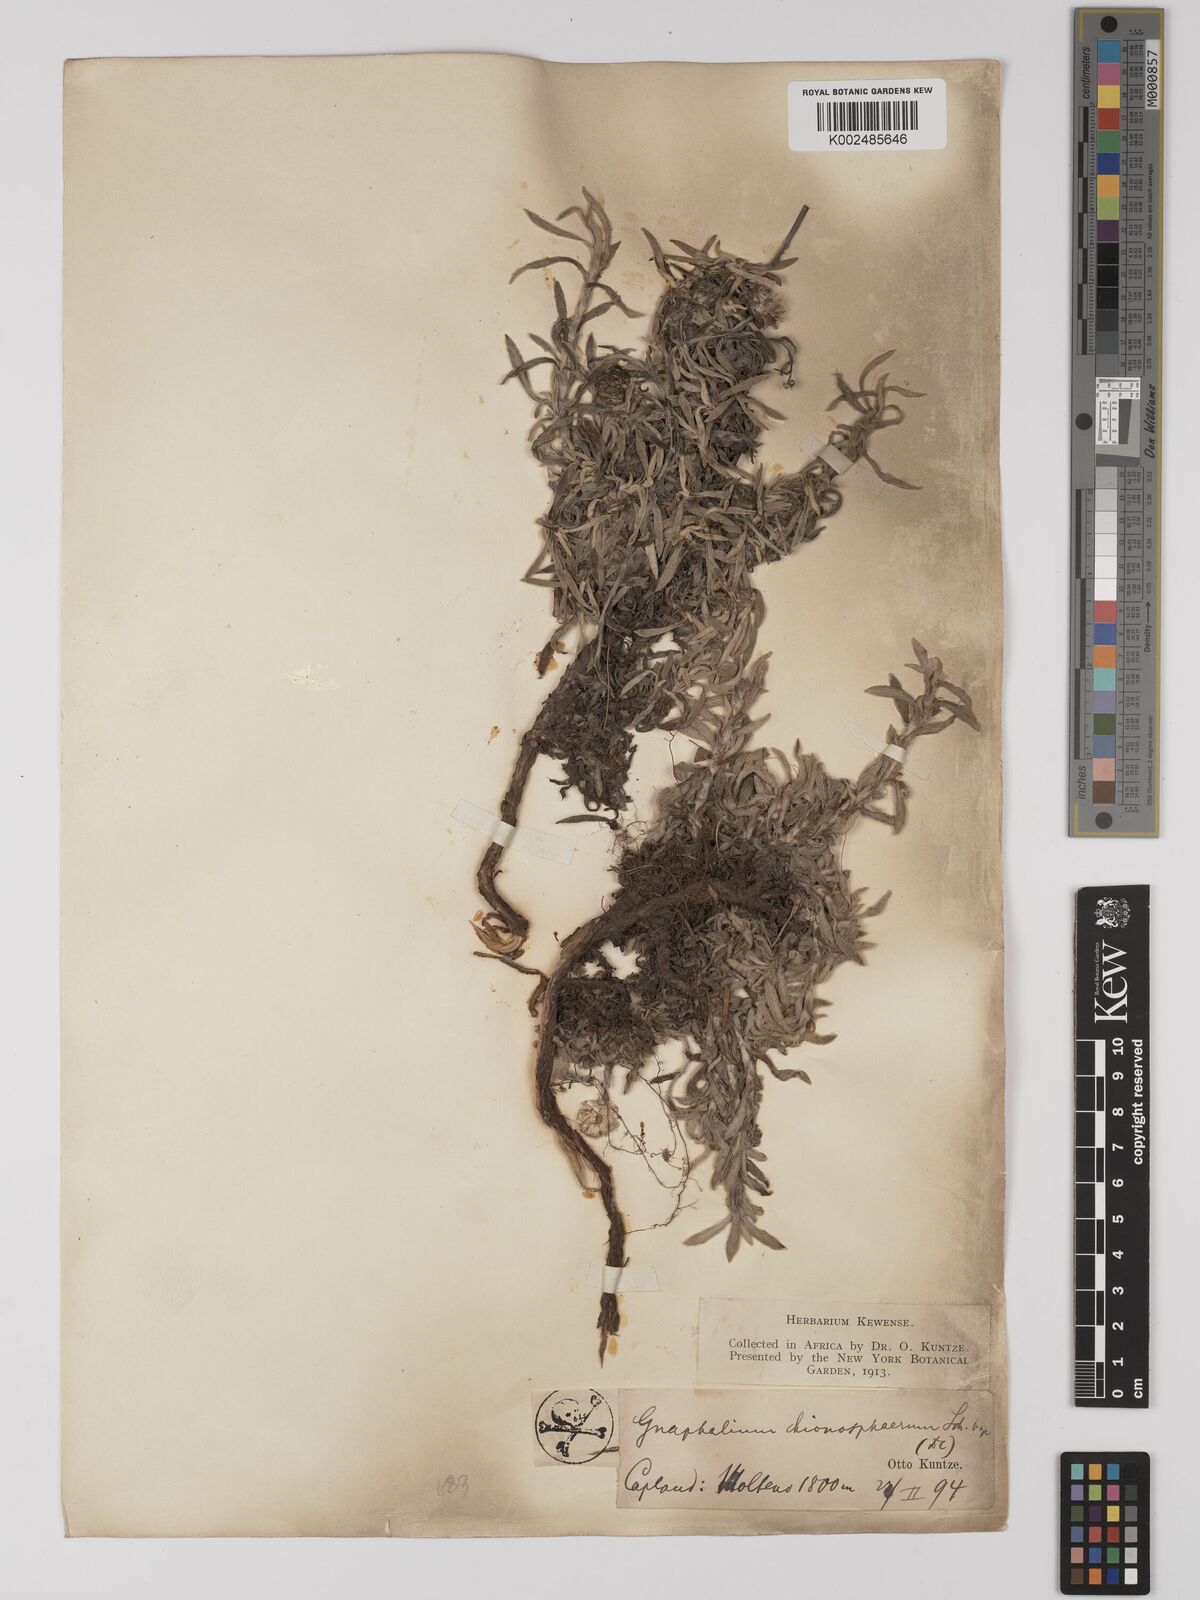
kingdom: Plantae
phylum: Tracheophyta
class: Magnoliopsida
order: Asterales
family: Asteraceae
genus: Helichrysum
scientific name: Helichrysum chionosphaerum
